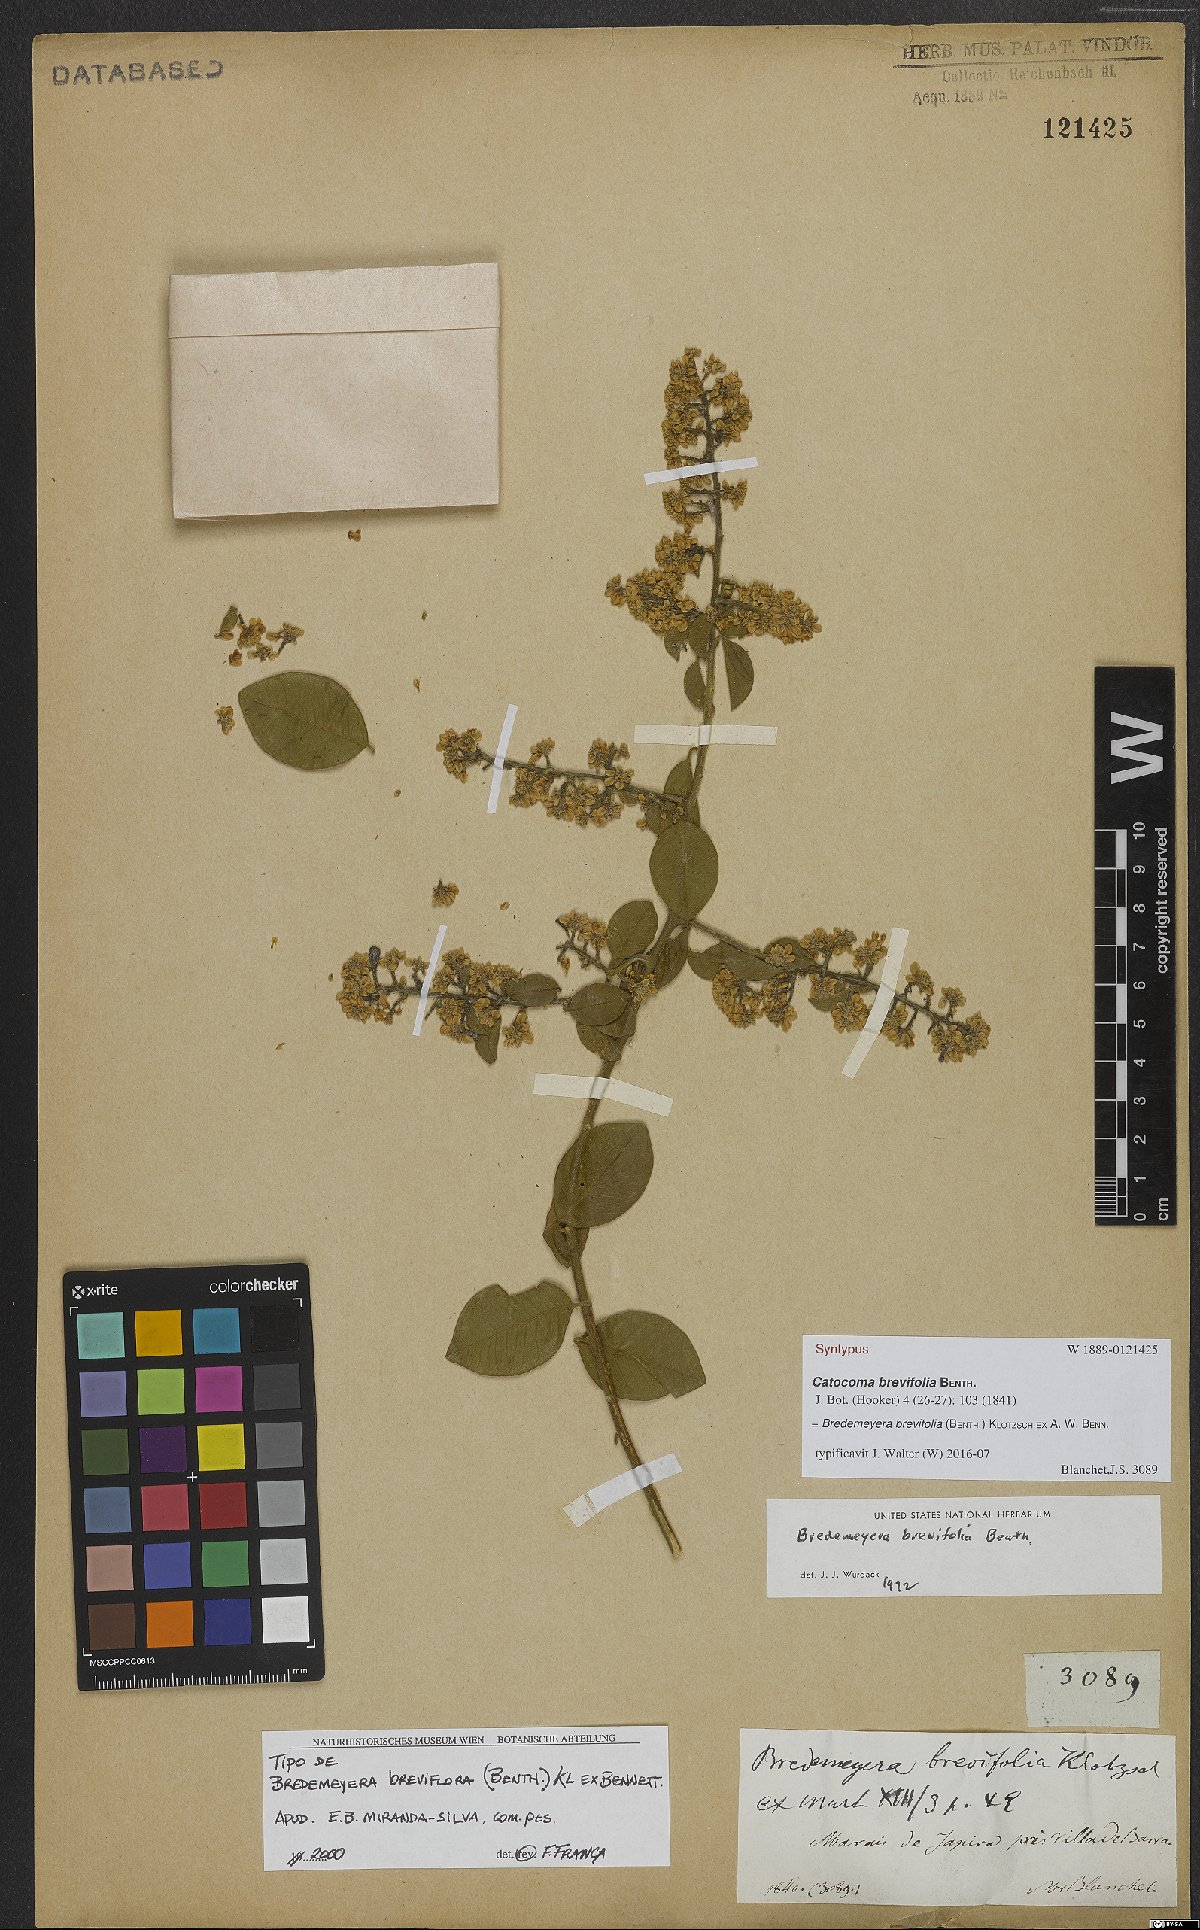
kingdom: Plantae
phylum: Tracheophyta
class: Magnoliopsida
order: Fabales
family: Polygalaceae
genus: Bredemeyera
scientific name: Bredemeyera brevifolia
